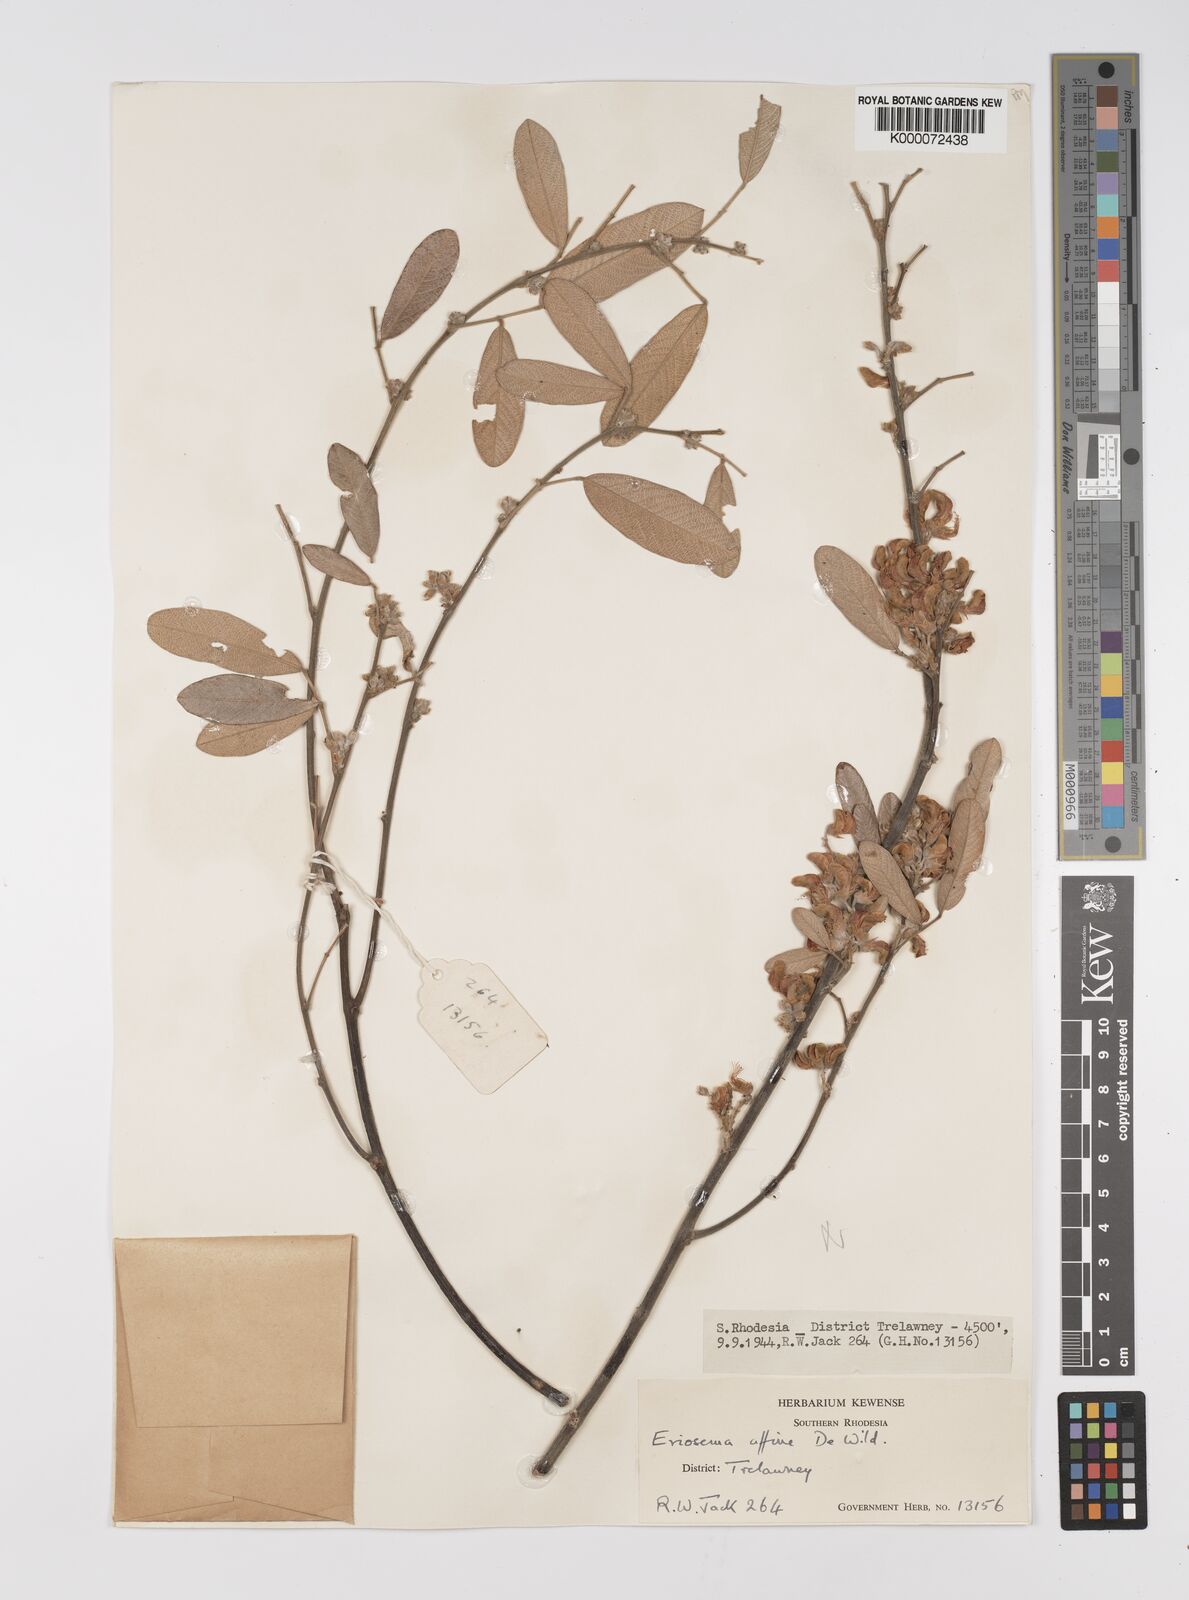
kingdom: Plantae
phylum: Tracheophyta
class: Magnoliopsida
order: Fabales
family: Fabaceae
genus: Eriosema
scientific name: Eriosema affine
